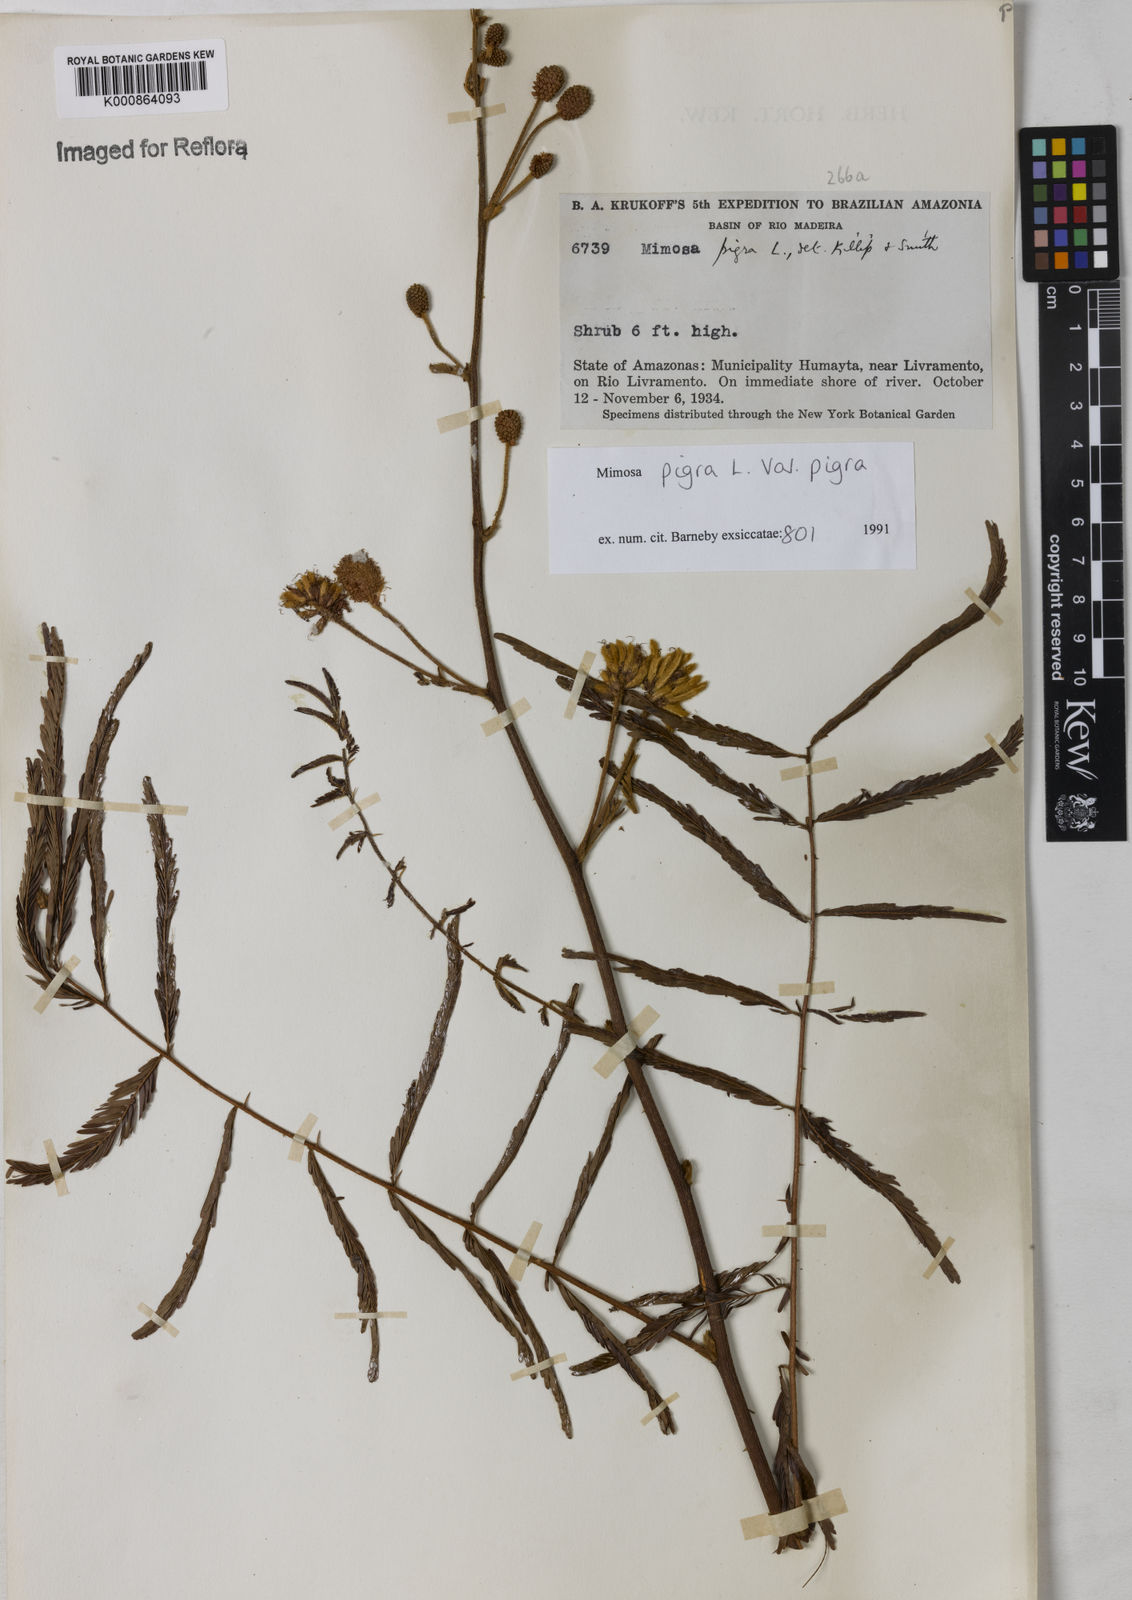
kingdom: Plantae
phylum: Tracheophyta
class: Magnoliopsida
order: Fabales
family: Fabaceae
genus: Mimosa
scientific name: Mimosa pigra
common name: Black mimosa
